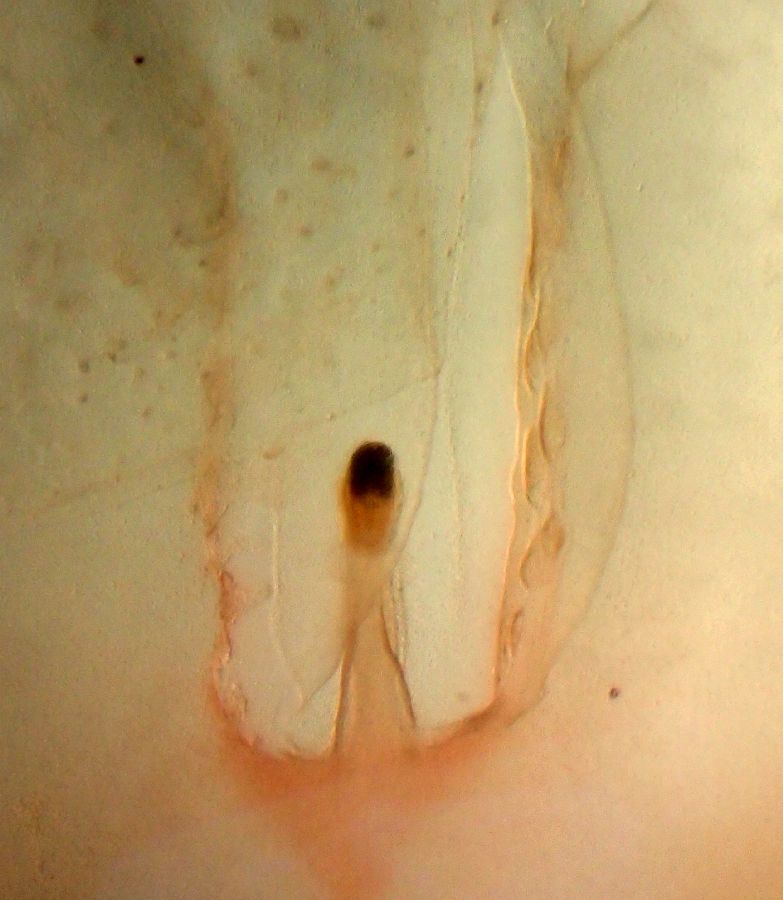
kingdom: Animalia
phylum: Cnidaria
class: Scyphozoa
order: Semaeostomeae
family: Cyaneidae
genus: Cyanea
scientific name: Cyanea capillata
